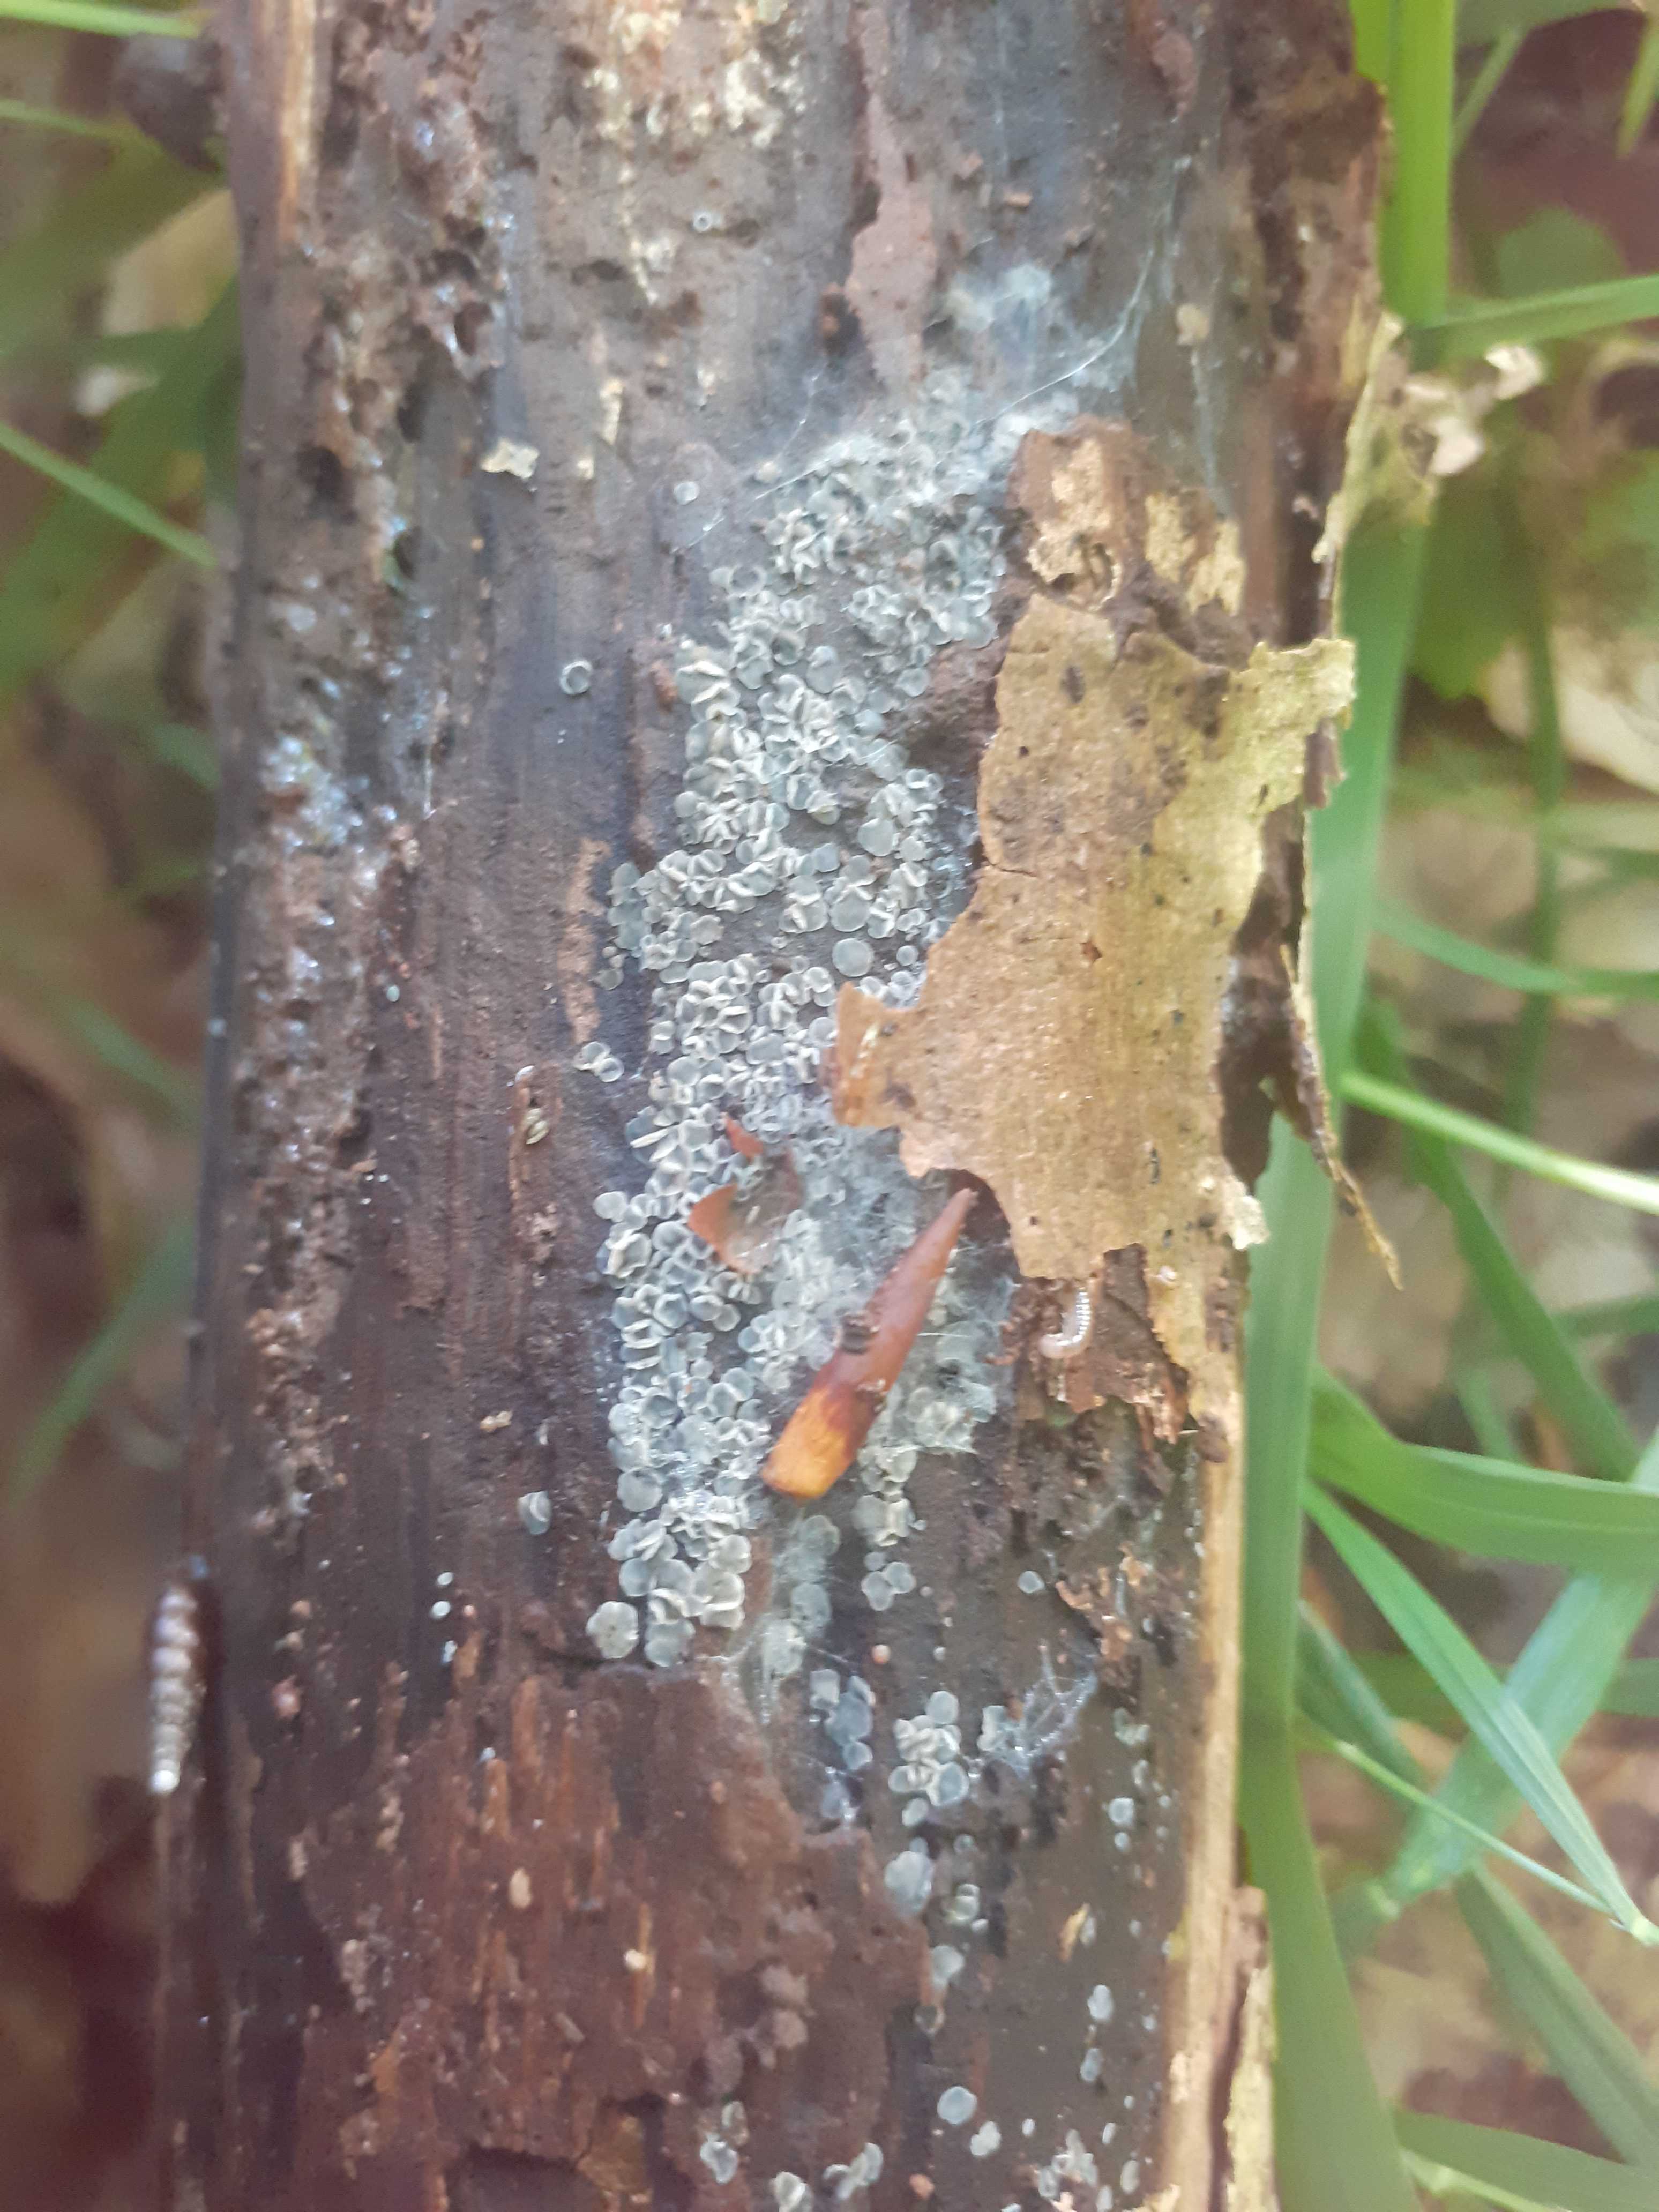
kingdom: Fungi
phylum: Ascomycota
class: Leotiomycetes
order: Helotiales
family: Mollisiaceae
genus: Mollisia
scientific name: Mollisia cinerea
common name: almindelig gråskive
